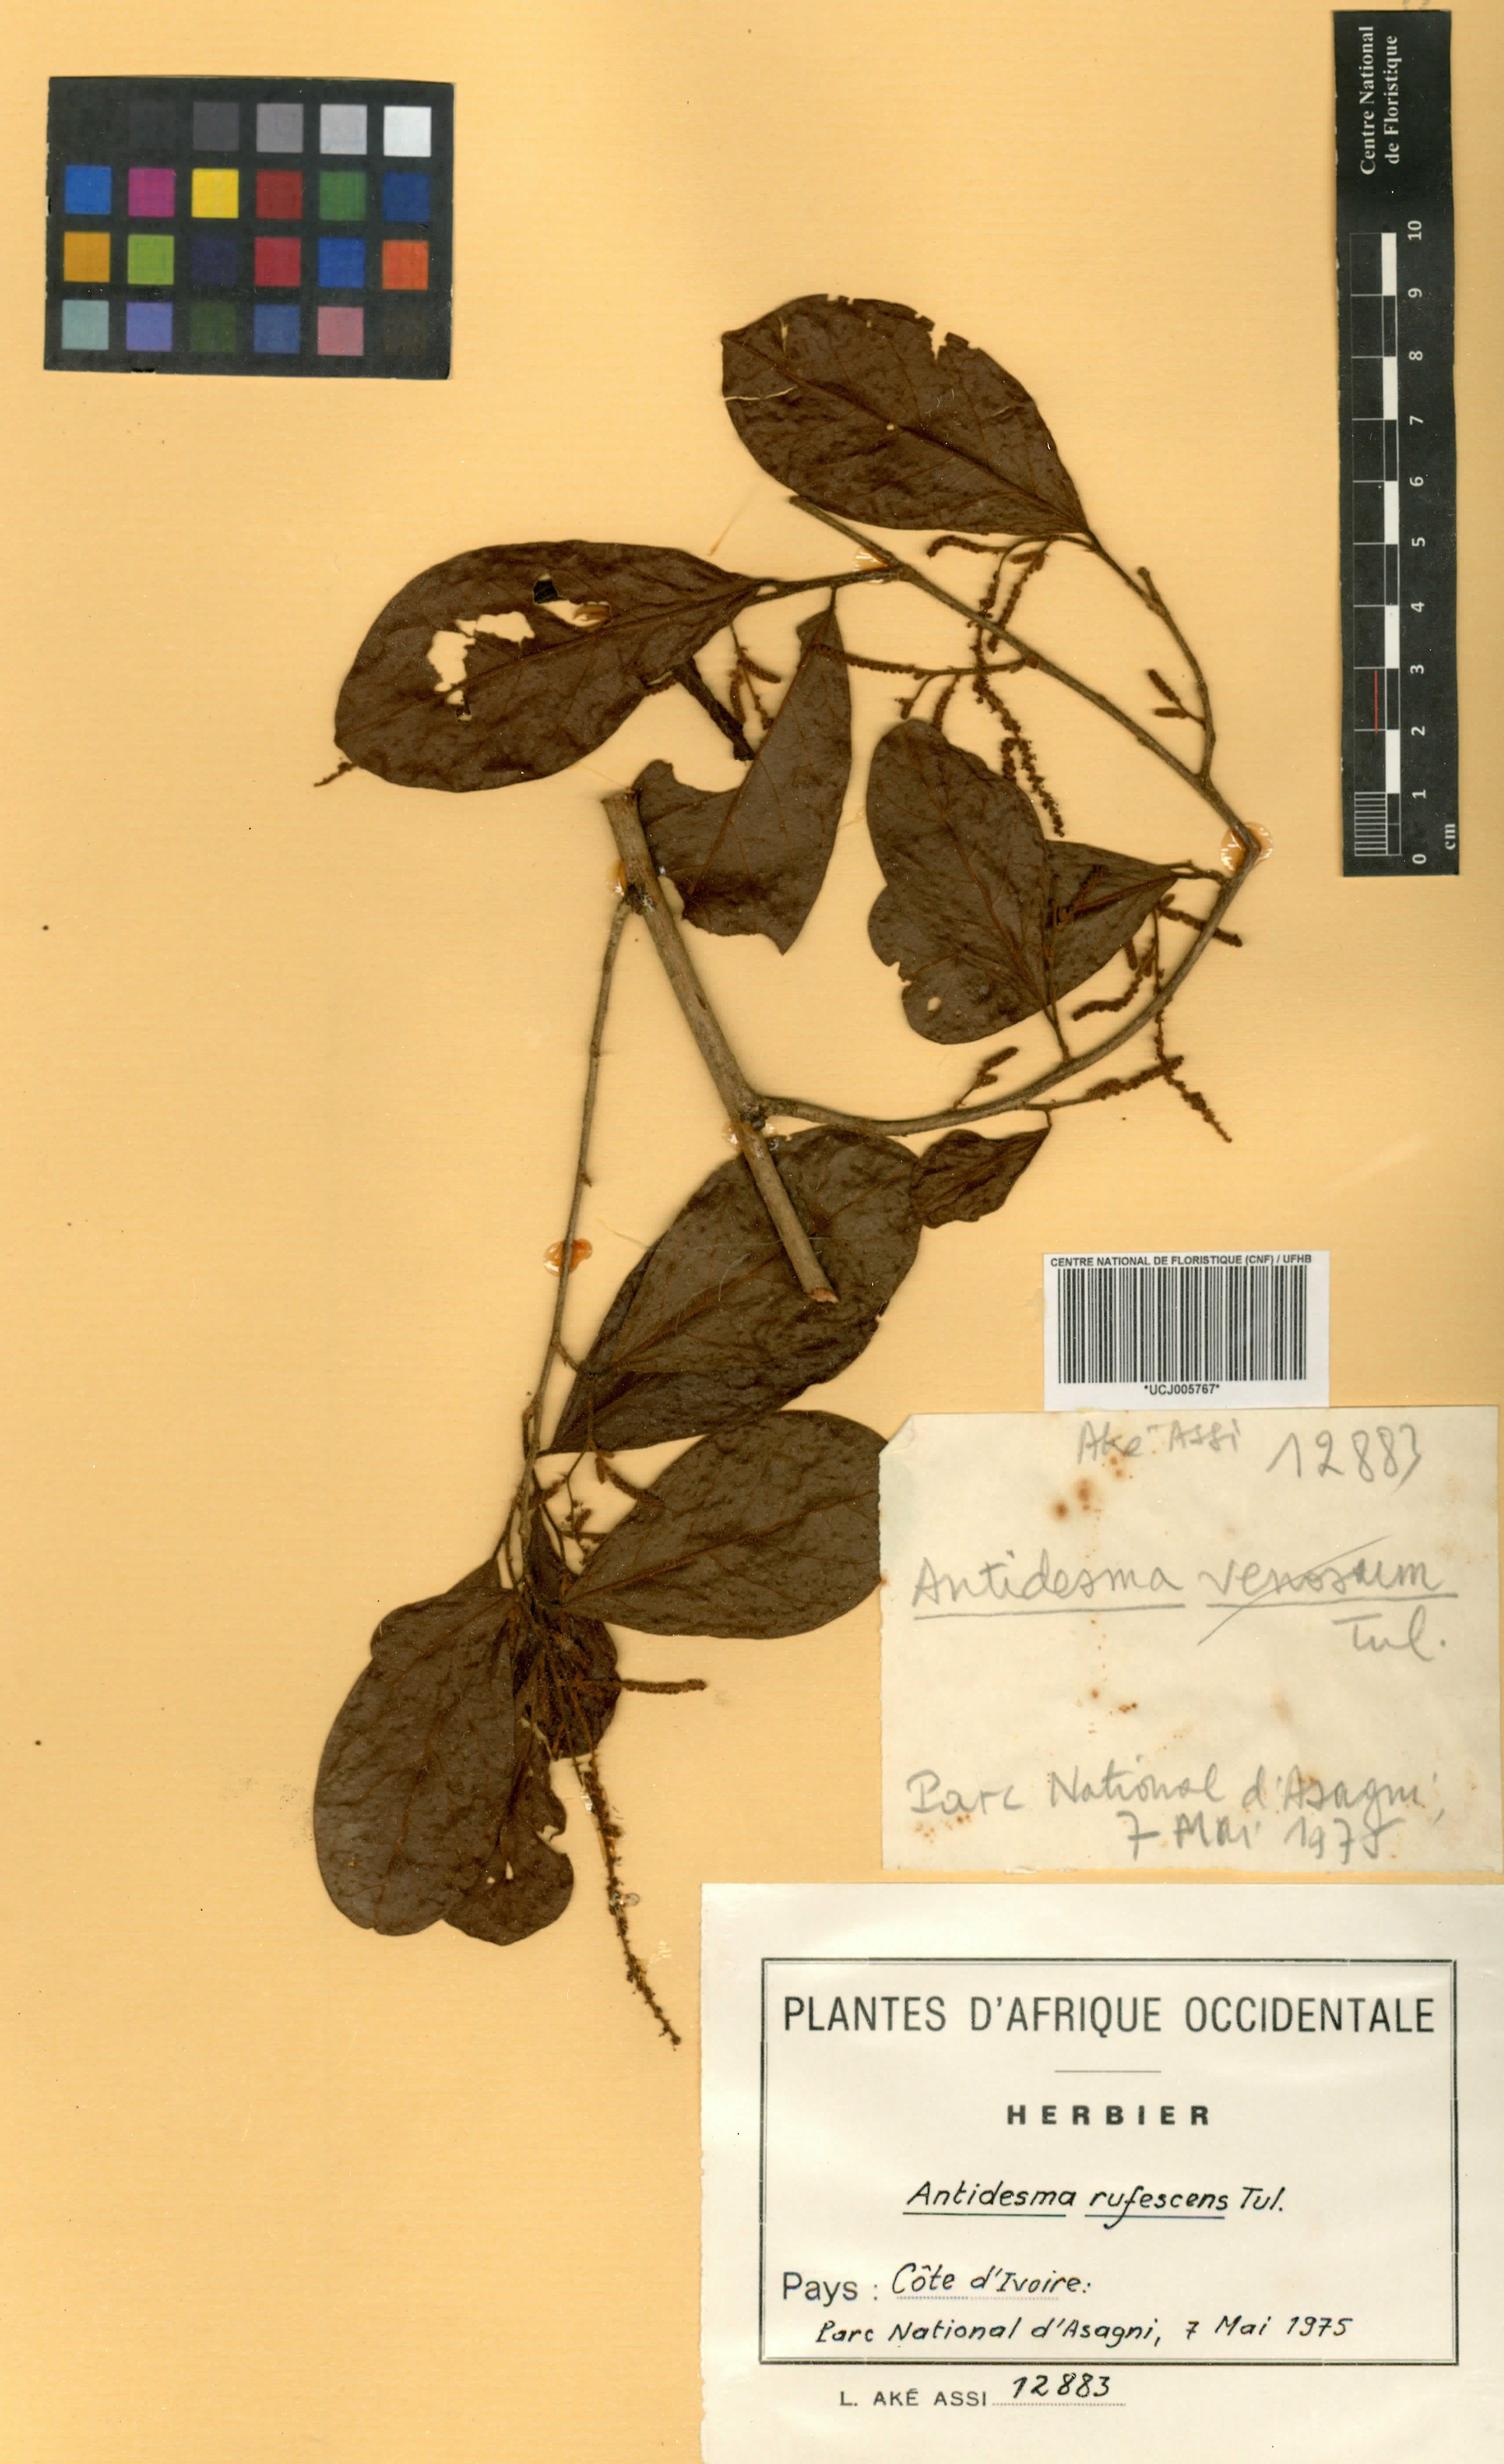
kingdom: Plantae
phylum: Tracheophyta
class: Magnoliopsida
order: Malpighiales
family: Phyllanthaceae
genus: Antidesma
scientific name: Antidesma laciniatum
